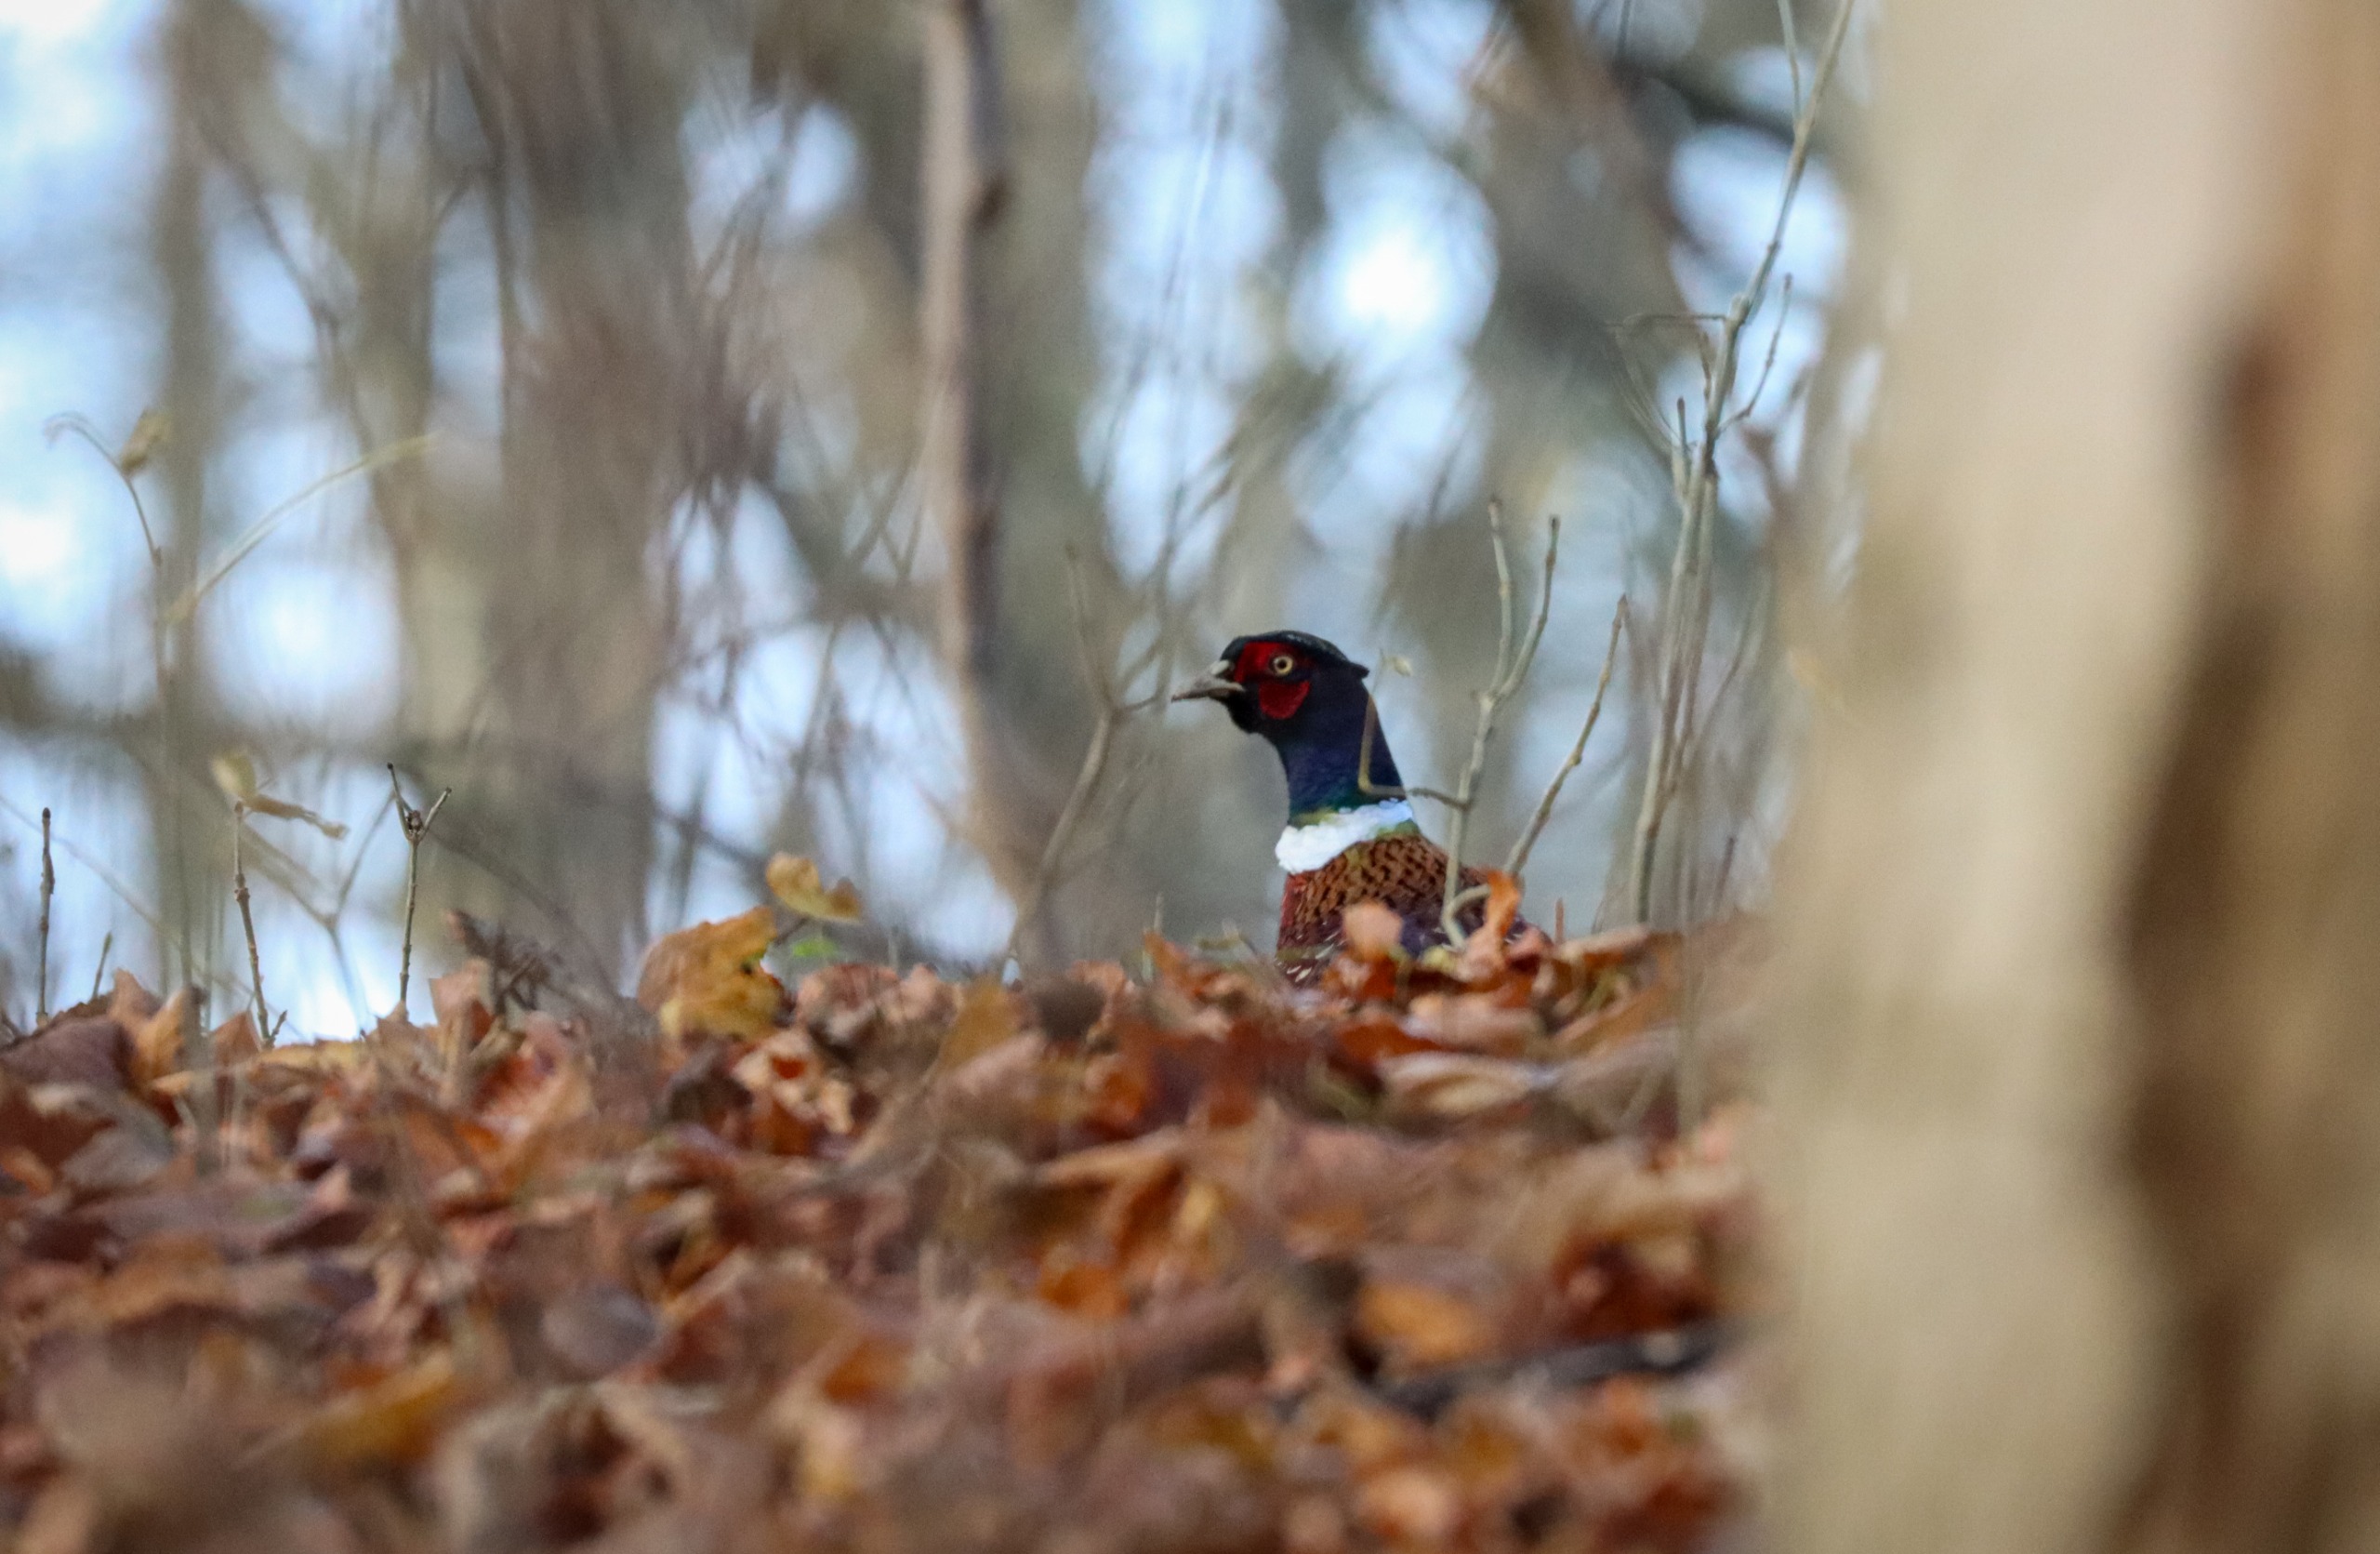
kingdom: Animalia
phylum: Chordata
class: Aves
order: Galliformes
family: Phasianidae
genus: Phasianus
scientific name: Phasianus colchicus
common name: Fasan
